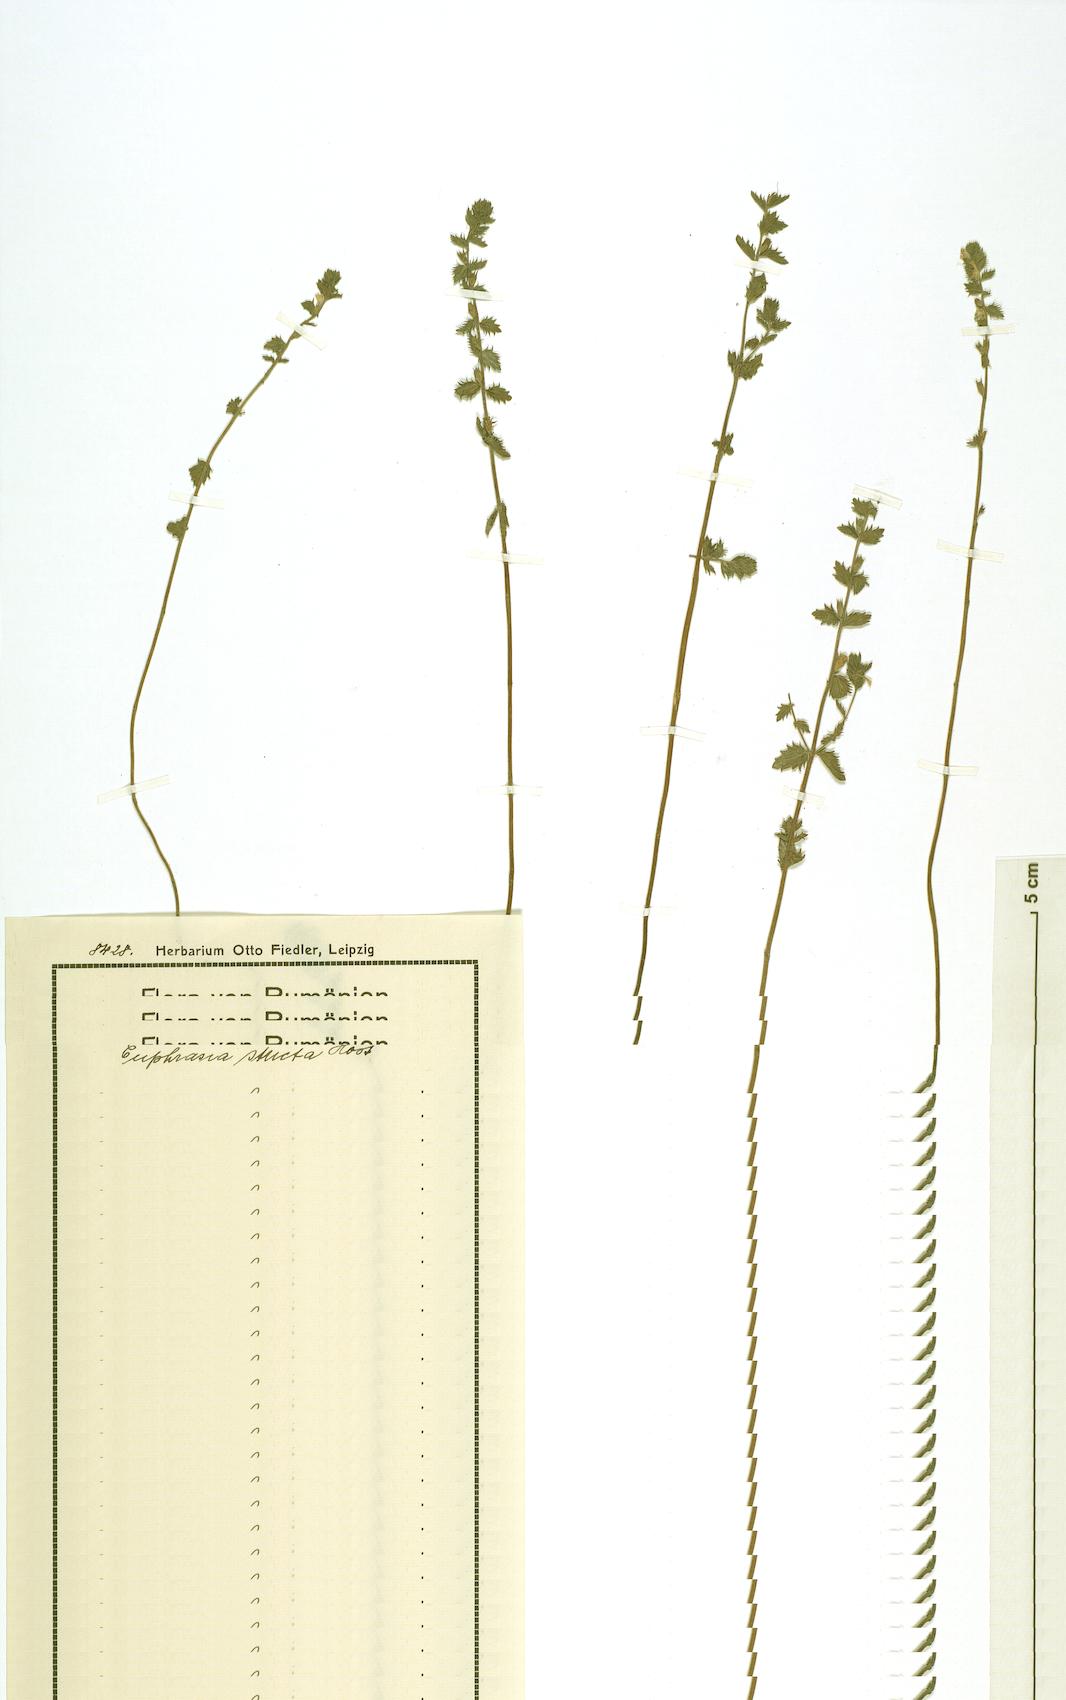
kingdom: Plantae
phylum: Tracheophyta
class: Magnoliopsida
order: Lamiales
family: Orobanchaceae
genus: Euphrasia
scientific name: Euphrasia stricta
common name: Drug eyebright
